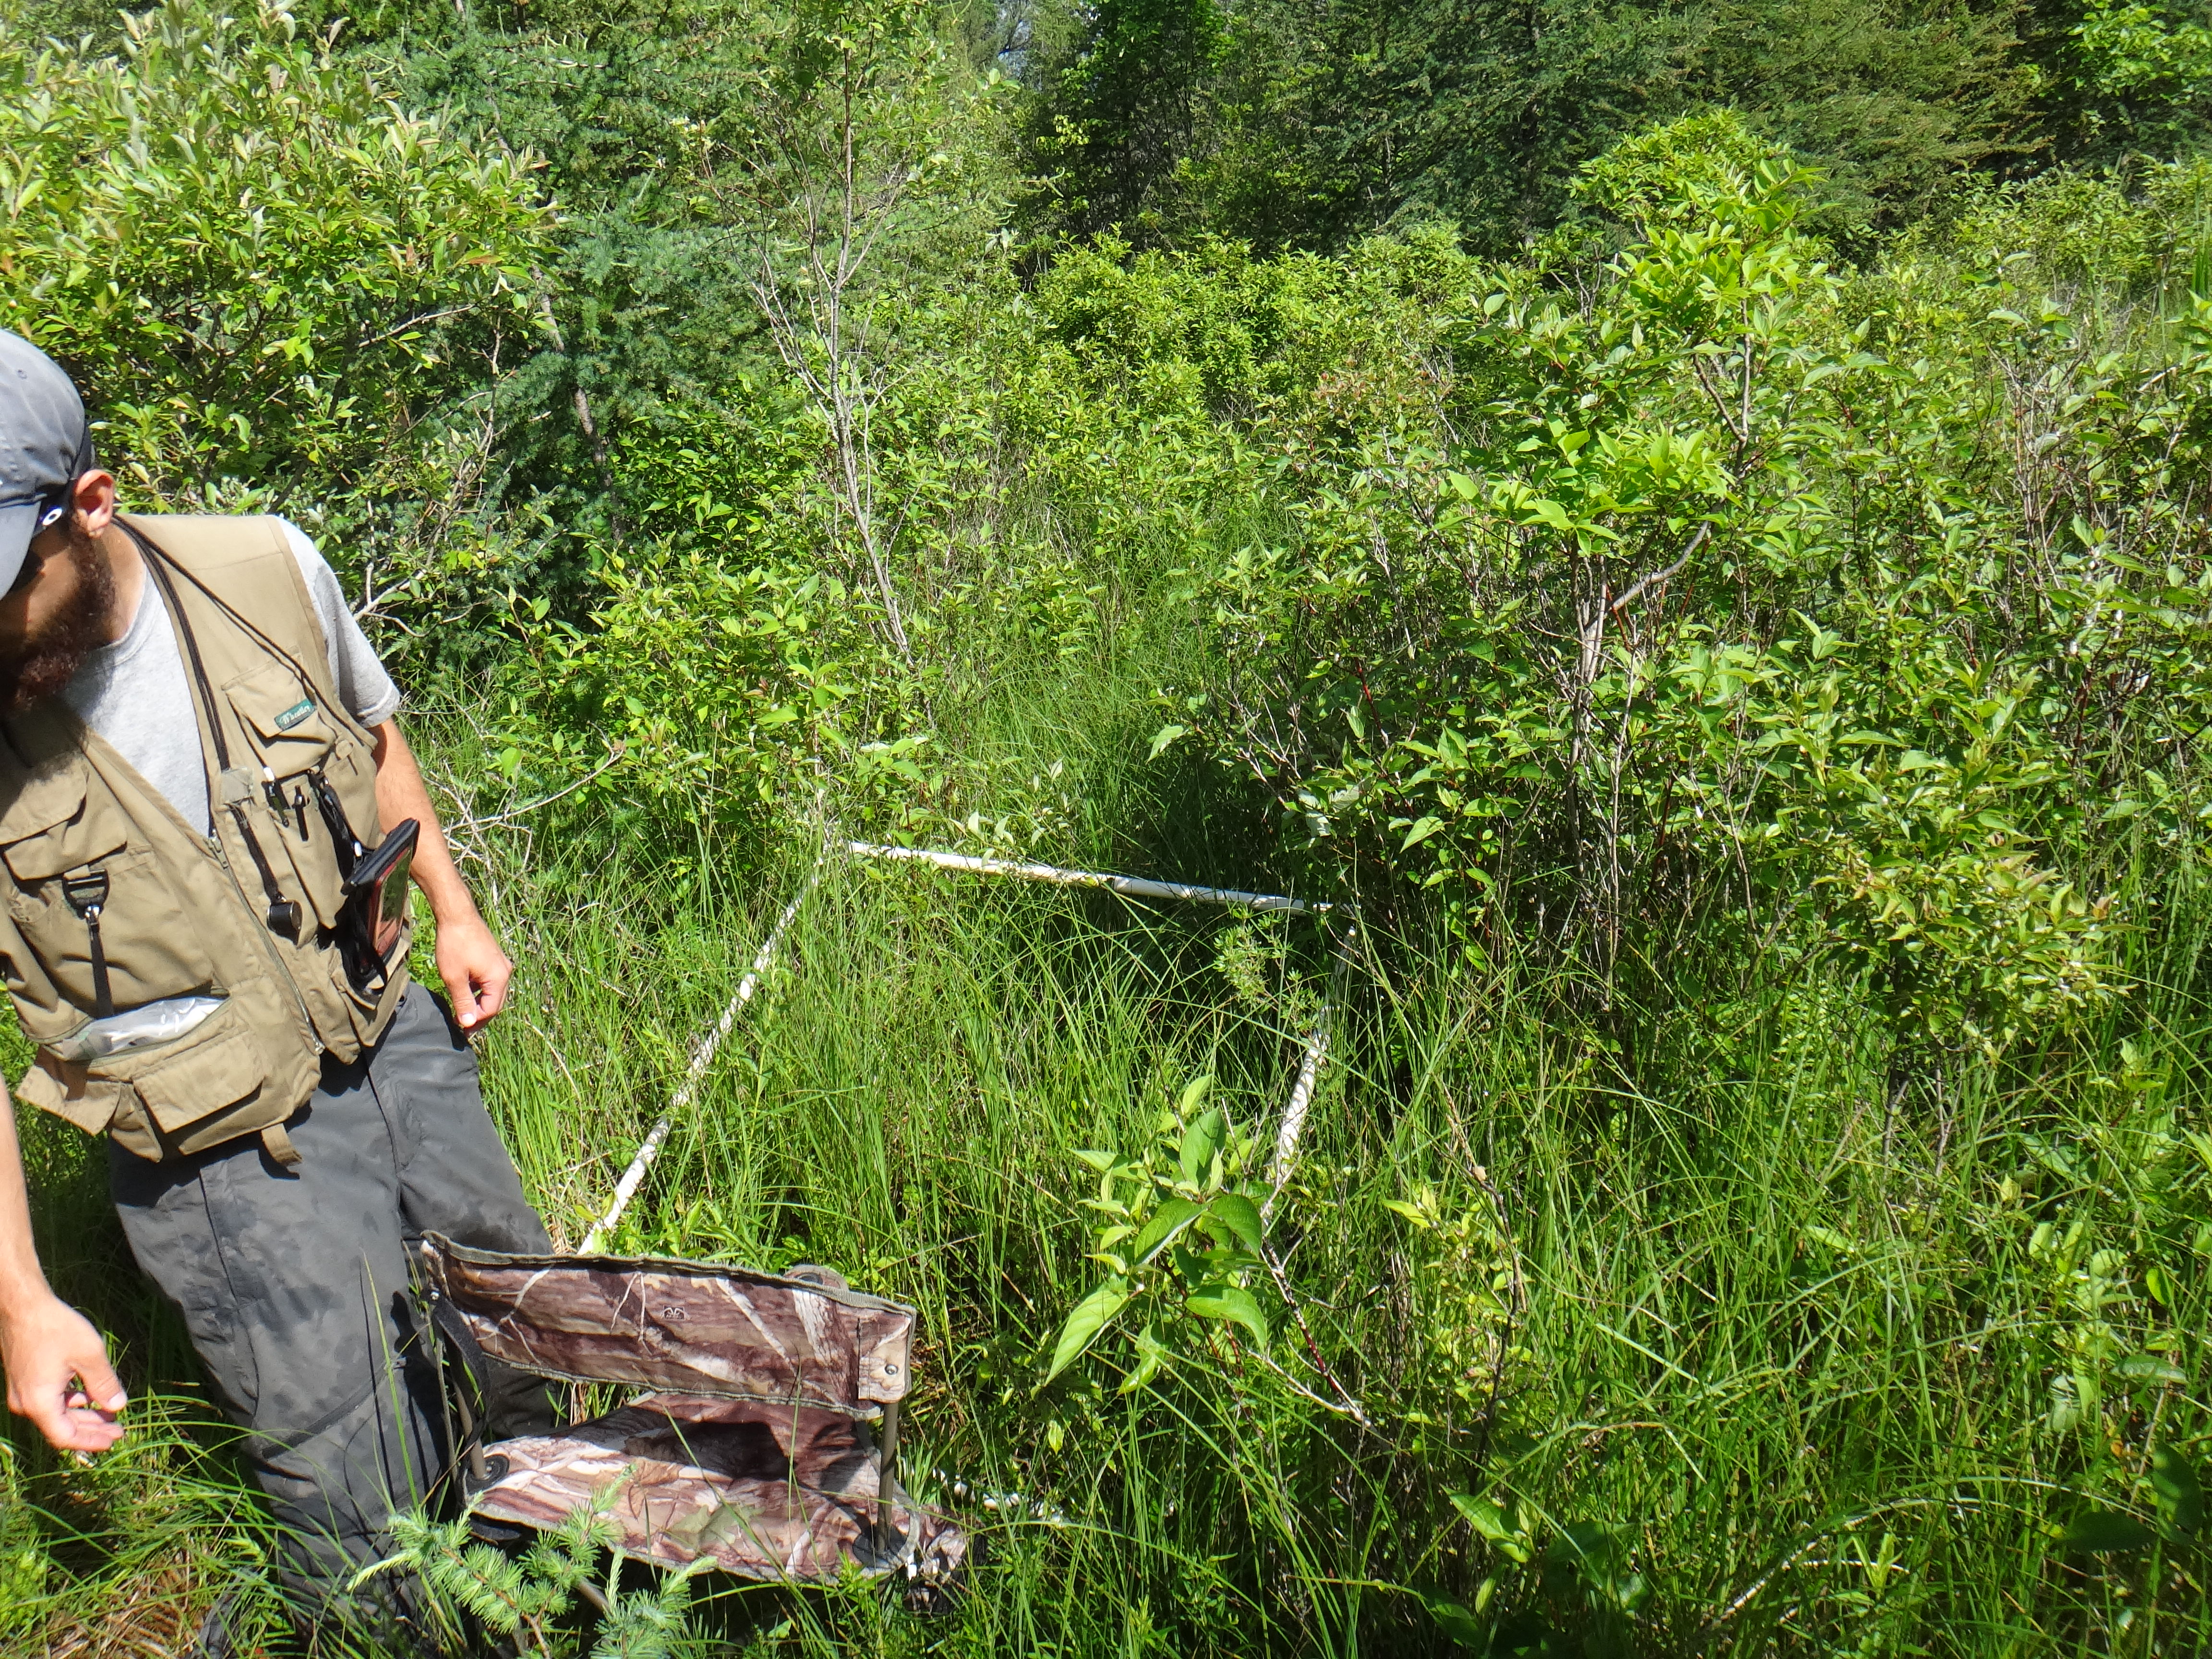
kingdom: Plantae
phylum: Tracheophyta
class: Liliopsida
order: Poales
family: Cyperaceae
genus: Carex
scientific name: Carex stricta
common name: Hummock sedge
